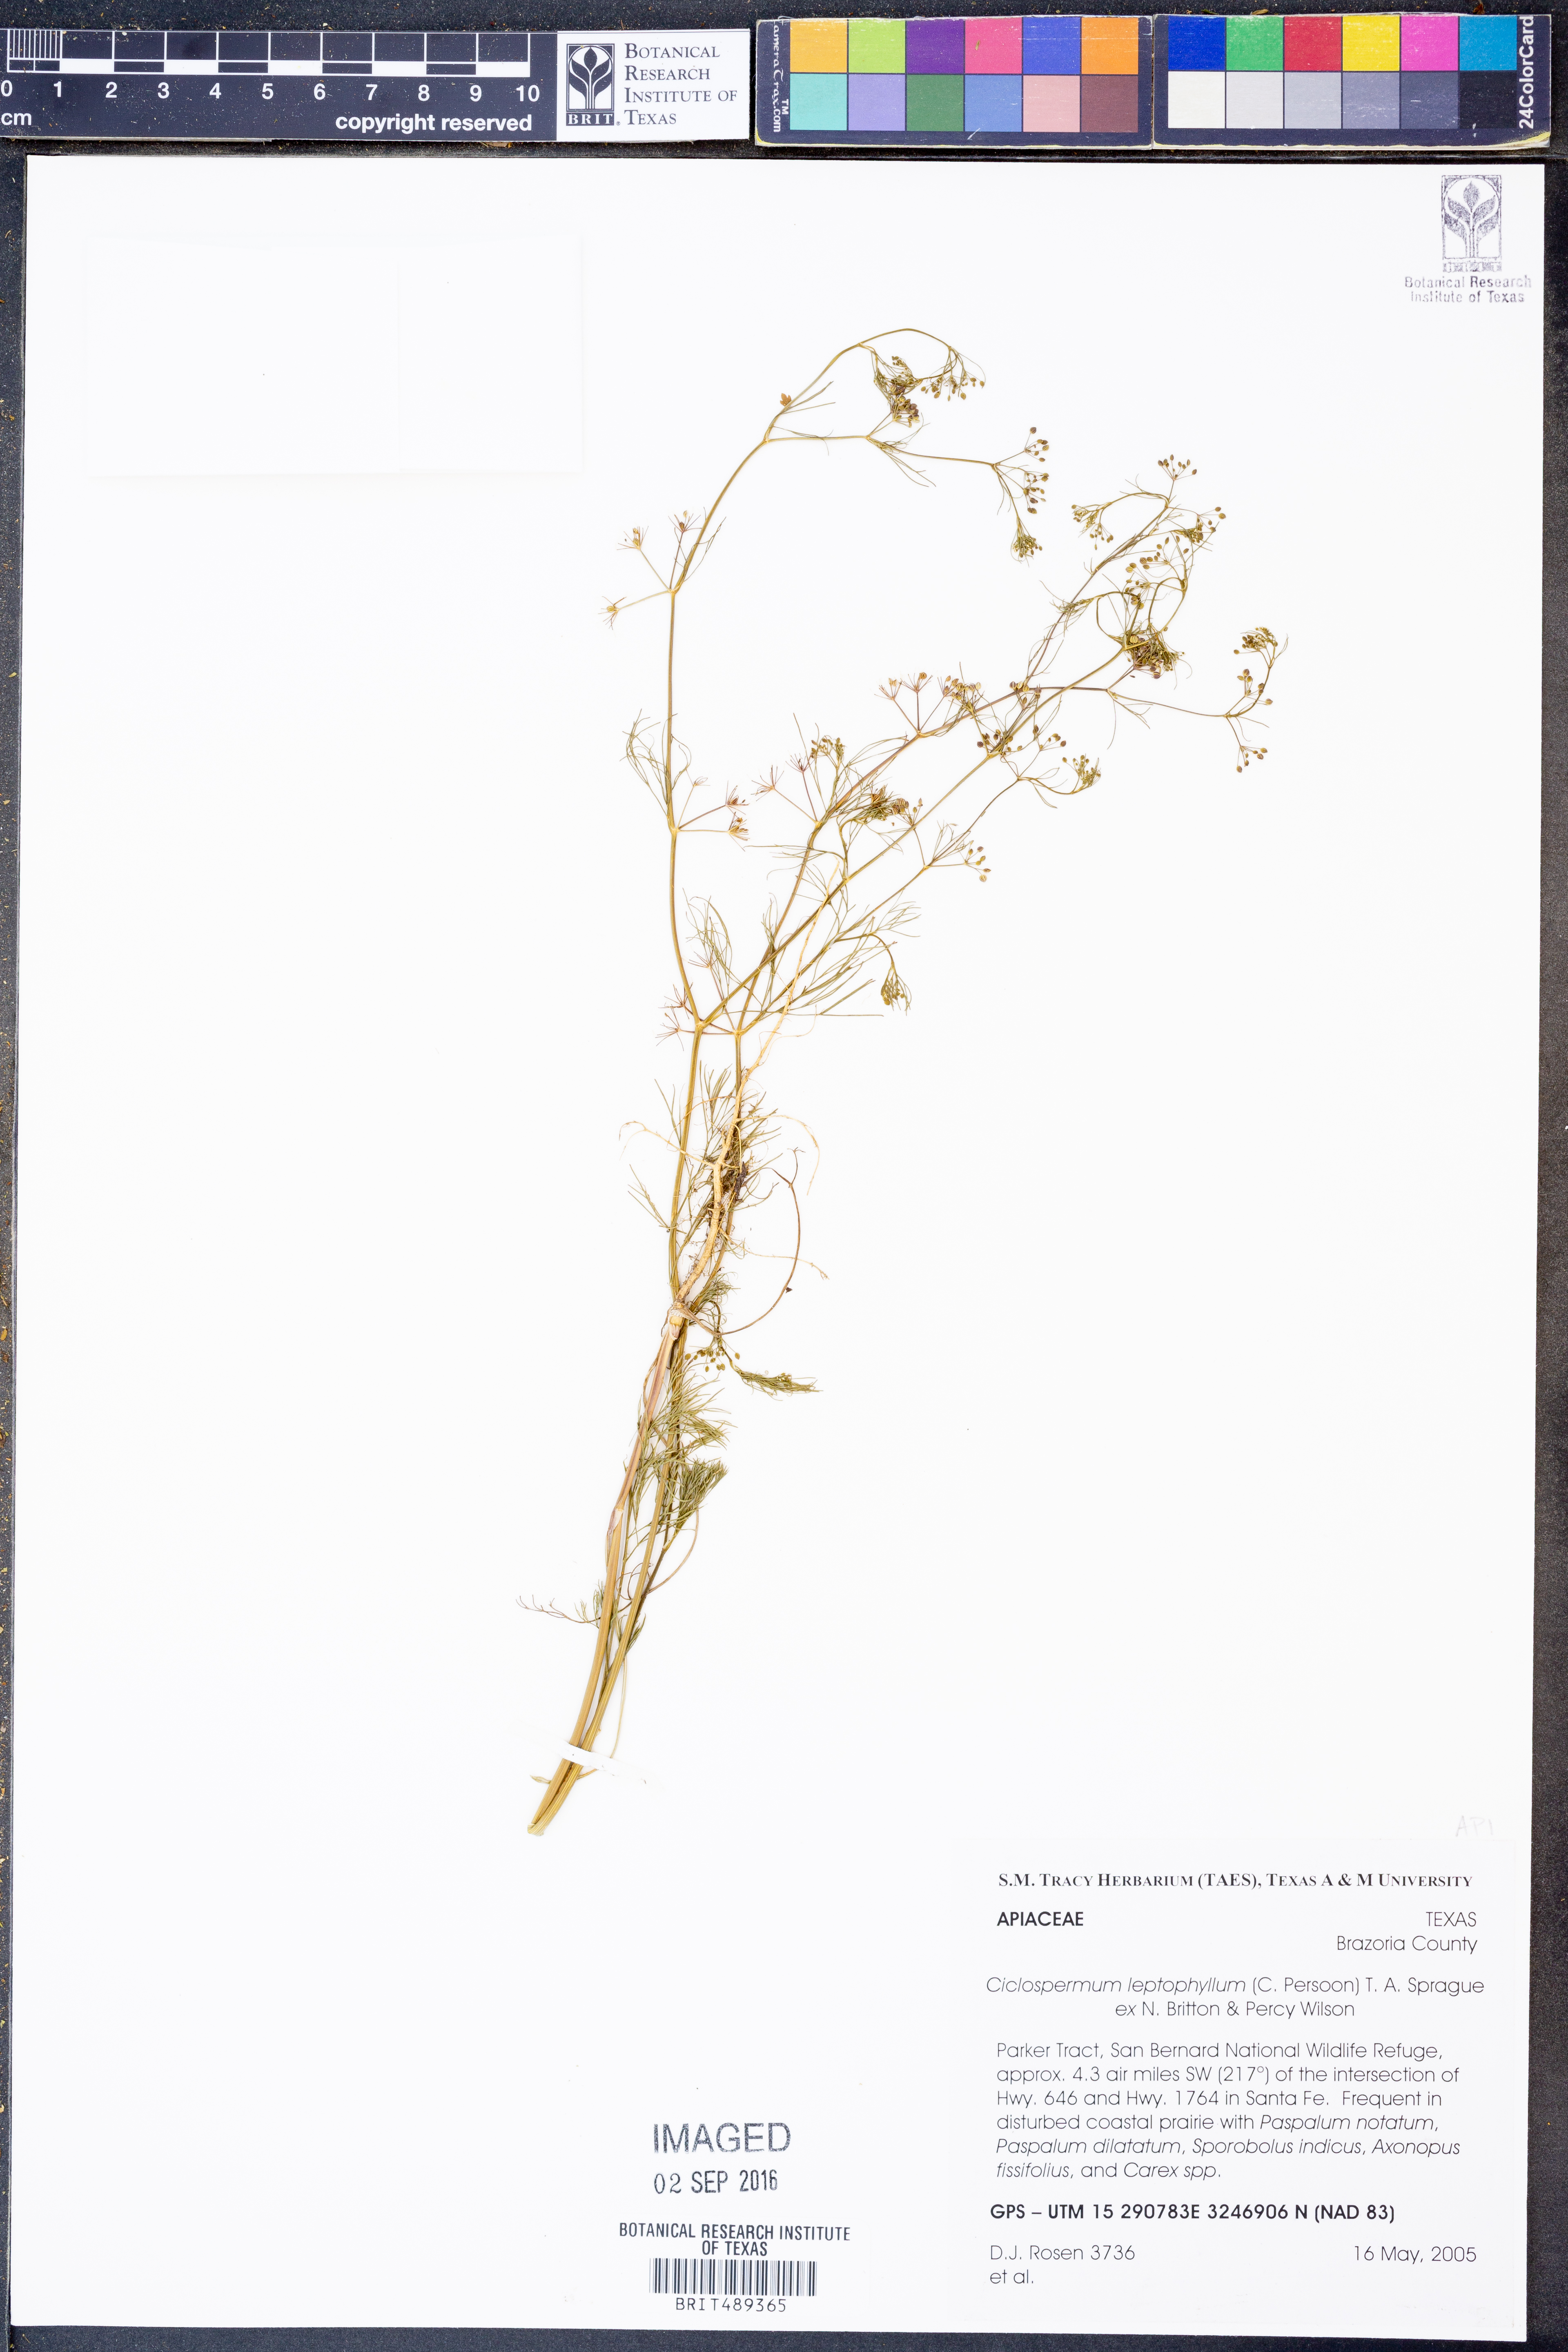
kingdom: Plantae
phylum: Tracheophyta
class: Magnoliopsida
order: Apiales
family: Apiaceae
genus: Cyclospermum
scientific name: Cyclospermum leptophyllum
